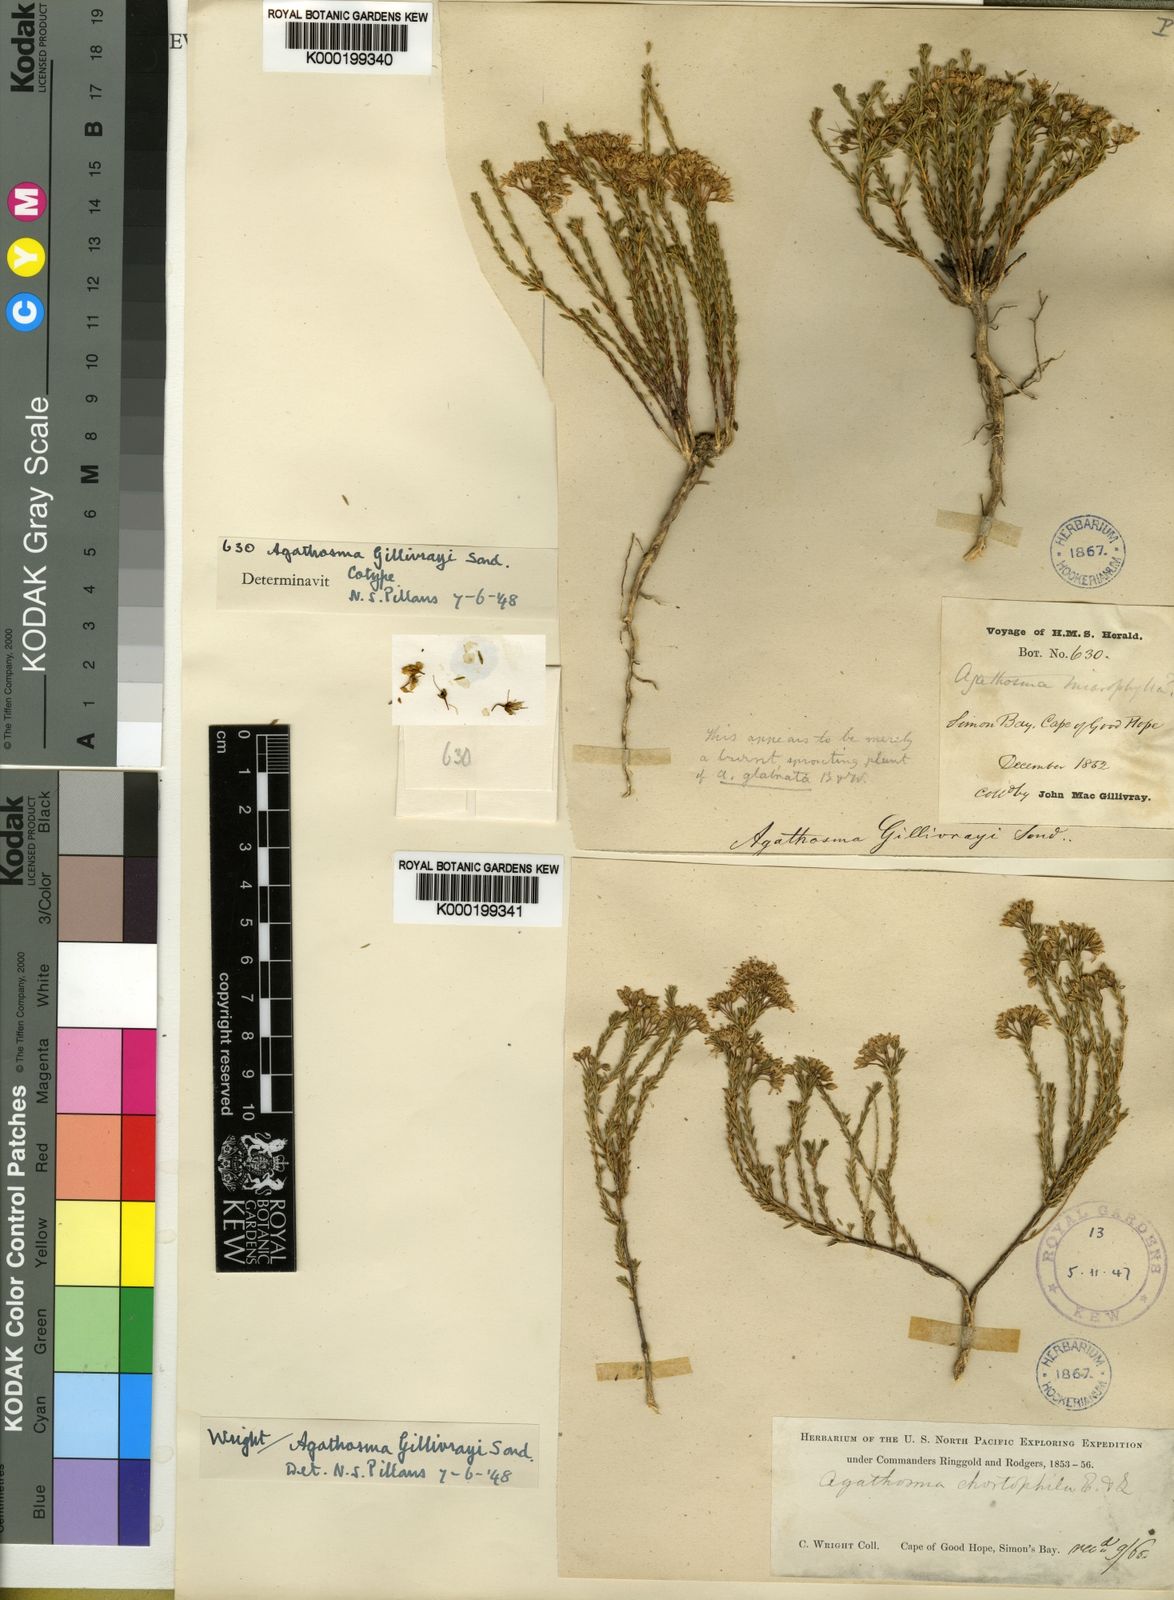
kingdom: Plantae
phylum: Tracheophyta
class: Magnoliopsida
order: Sapindales
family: Rutaceae
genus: Agathosma
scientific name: Agathosma capensis
